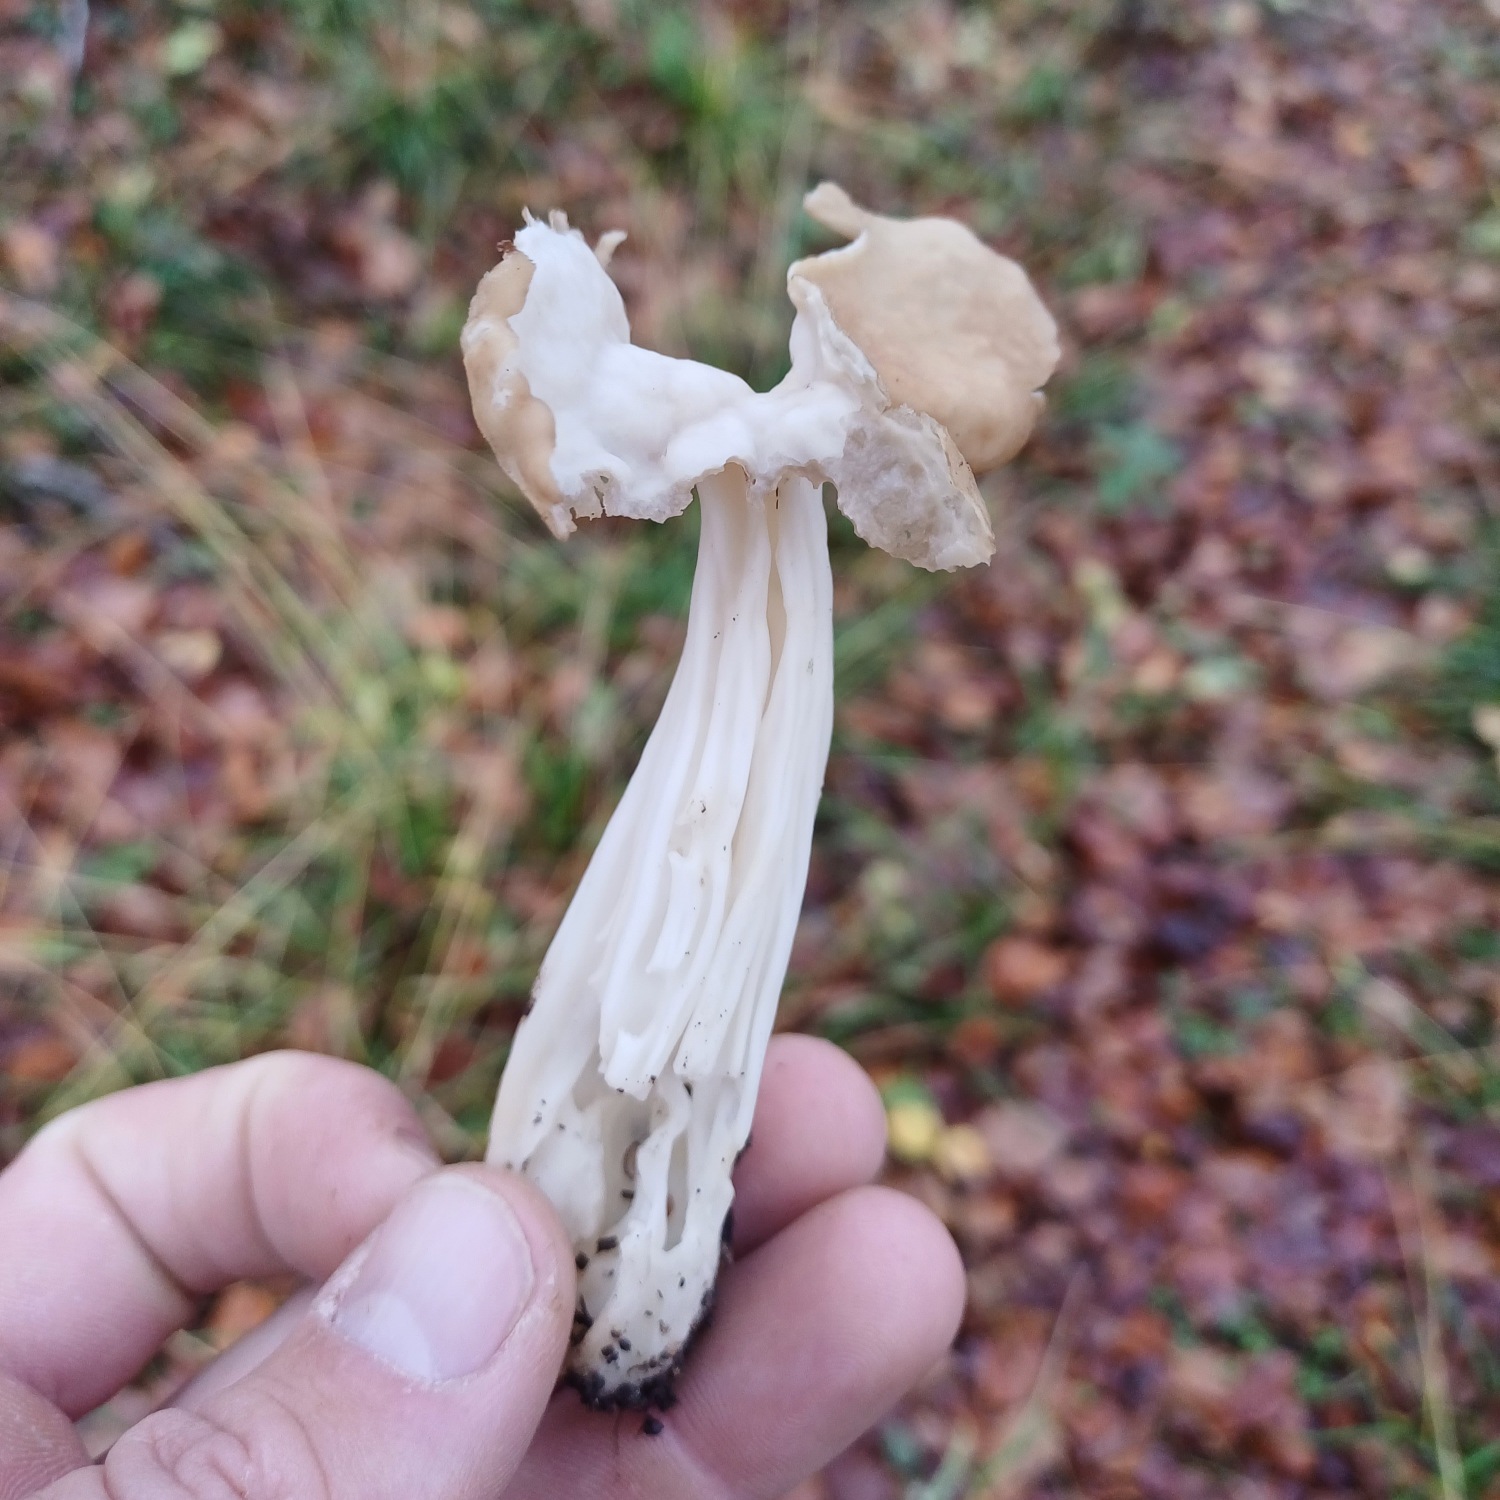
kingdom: Fungi
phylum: Ascomycota
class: Pezizomycetes
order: Pezizales
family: Helvellaceae
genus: Helvella
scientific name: Helvella crispa
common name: Kruset foldhat
